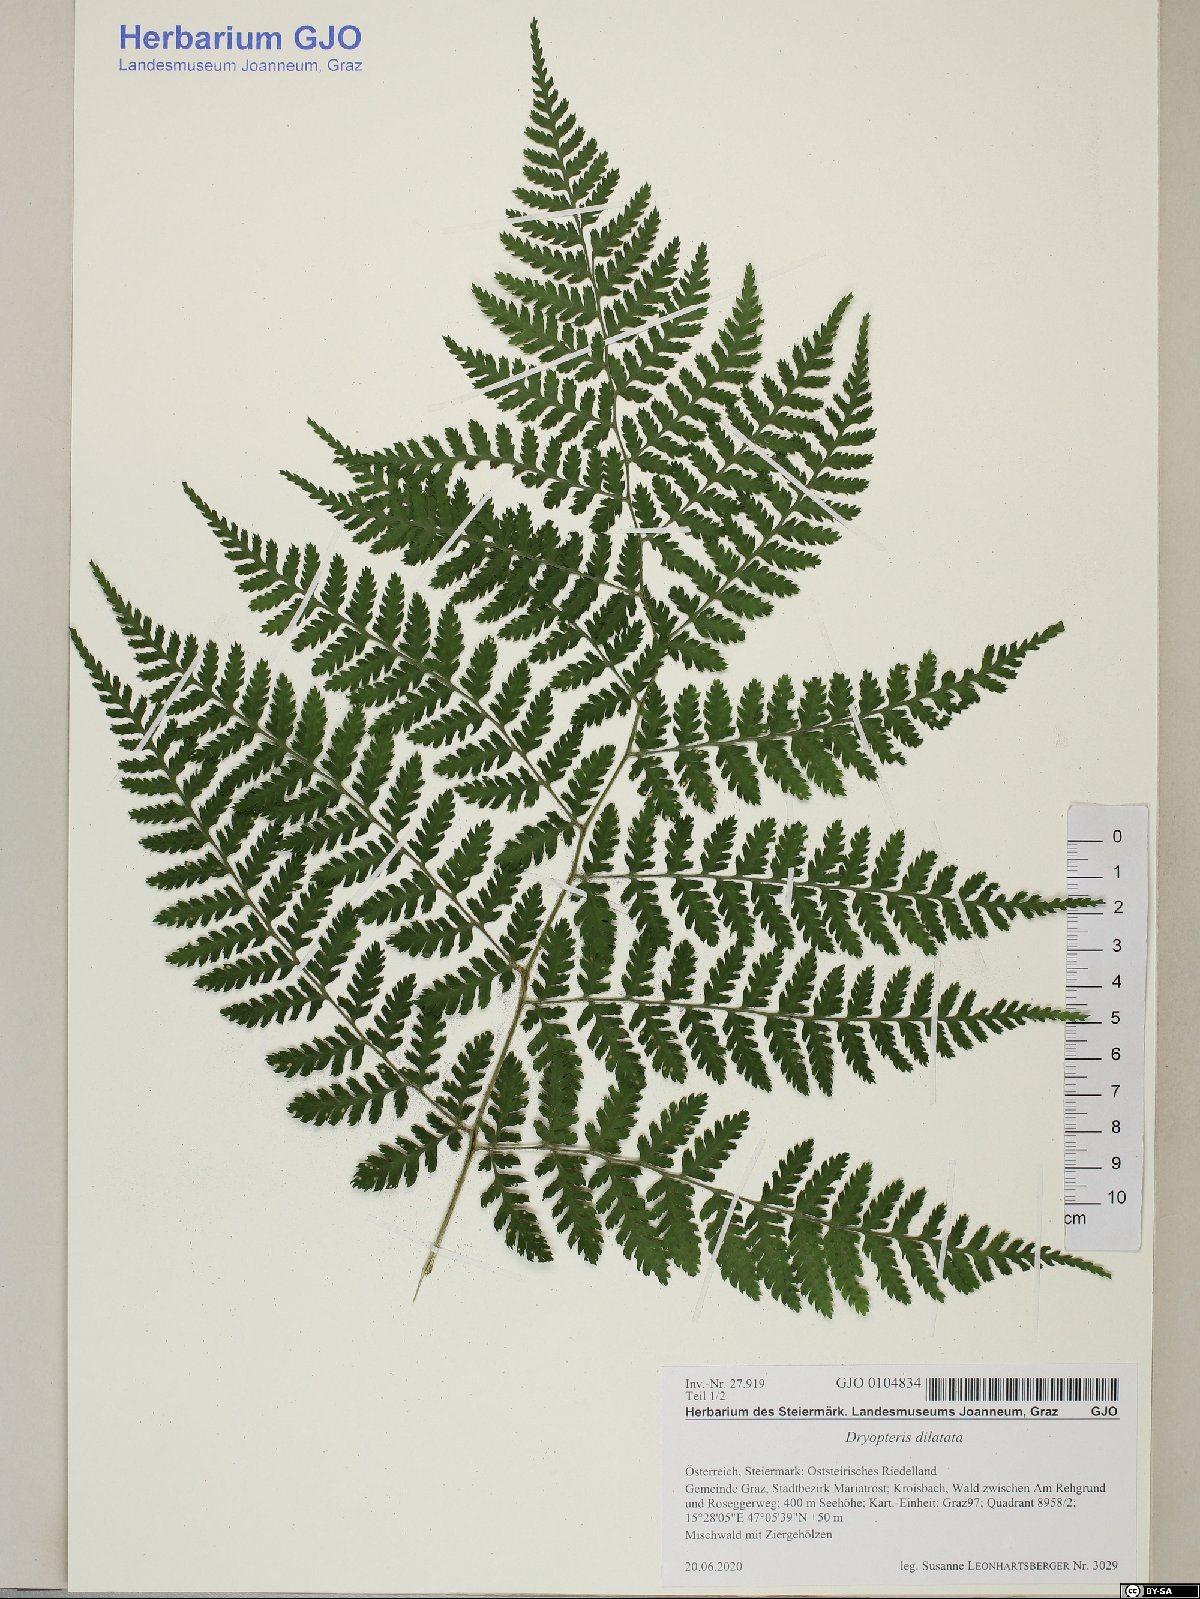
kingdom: Plantae
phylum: Tracheophyta
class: Polypodiopsida
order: Polypodiales
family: Dryopteridaceae
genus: Dryopteris
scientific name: Dryopteris dilatata
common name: Broad buckler-fern
